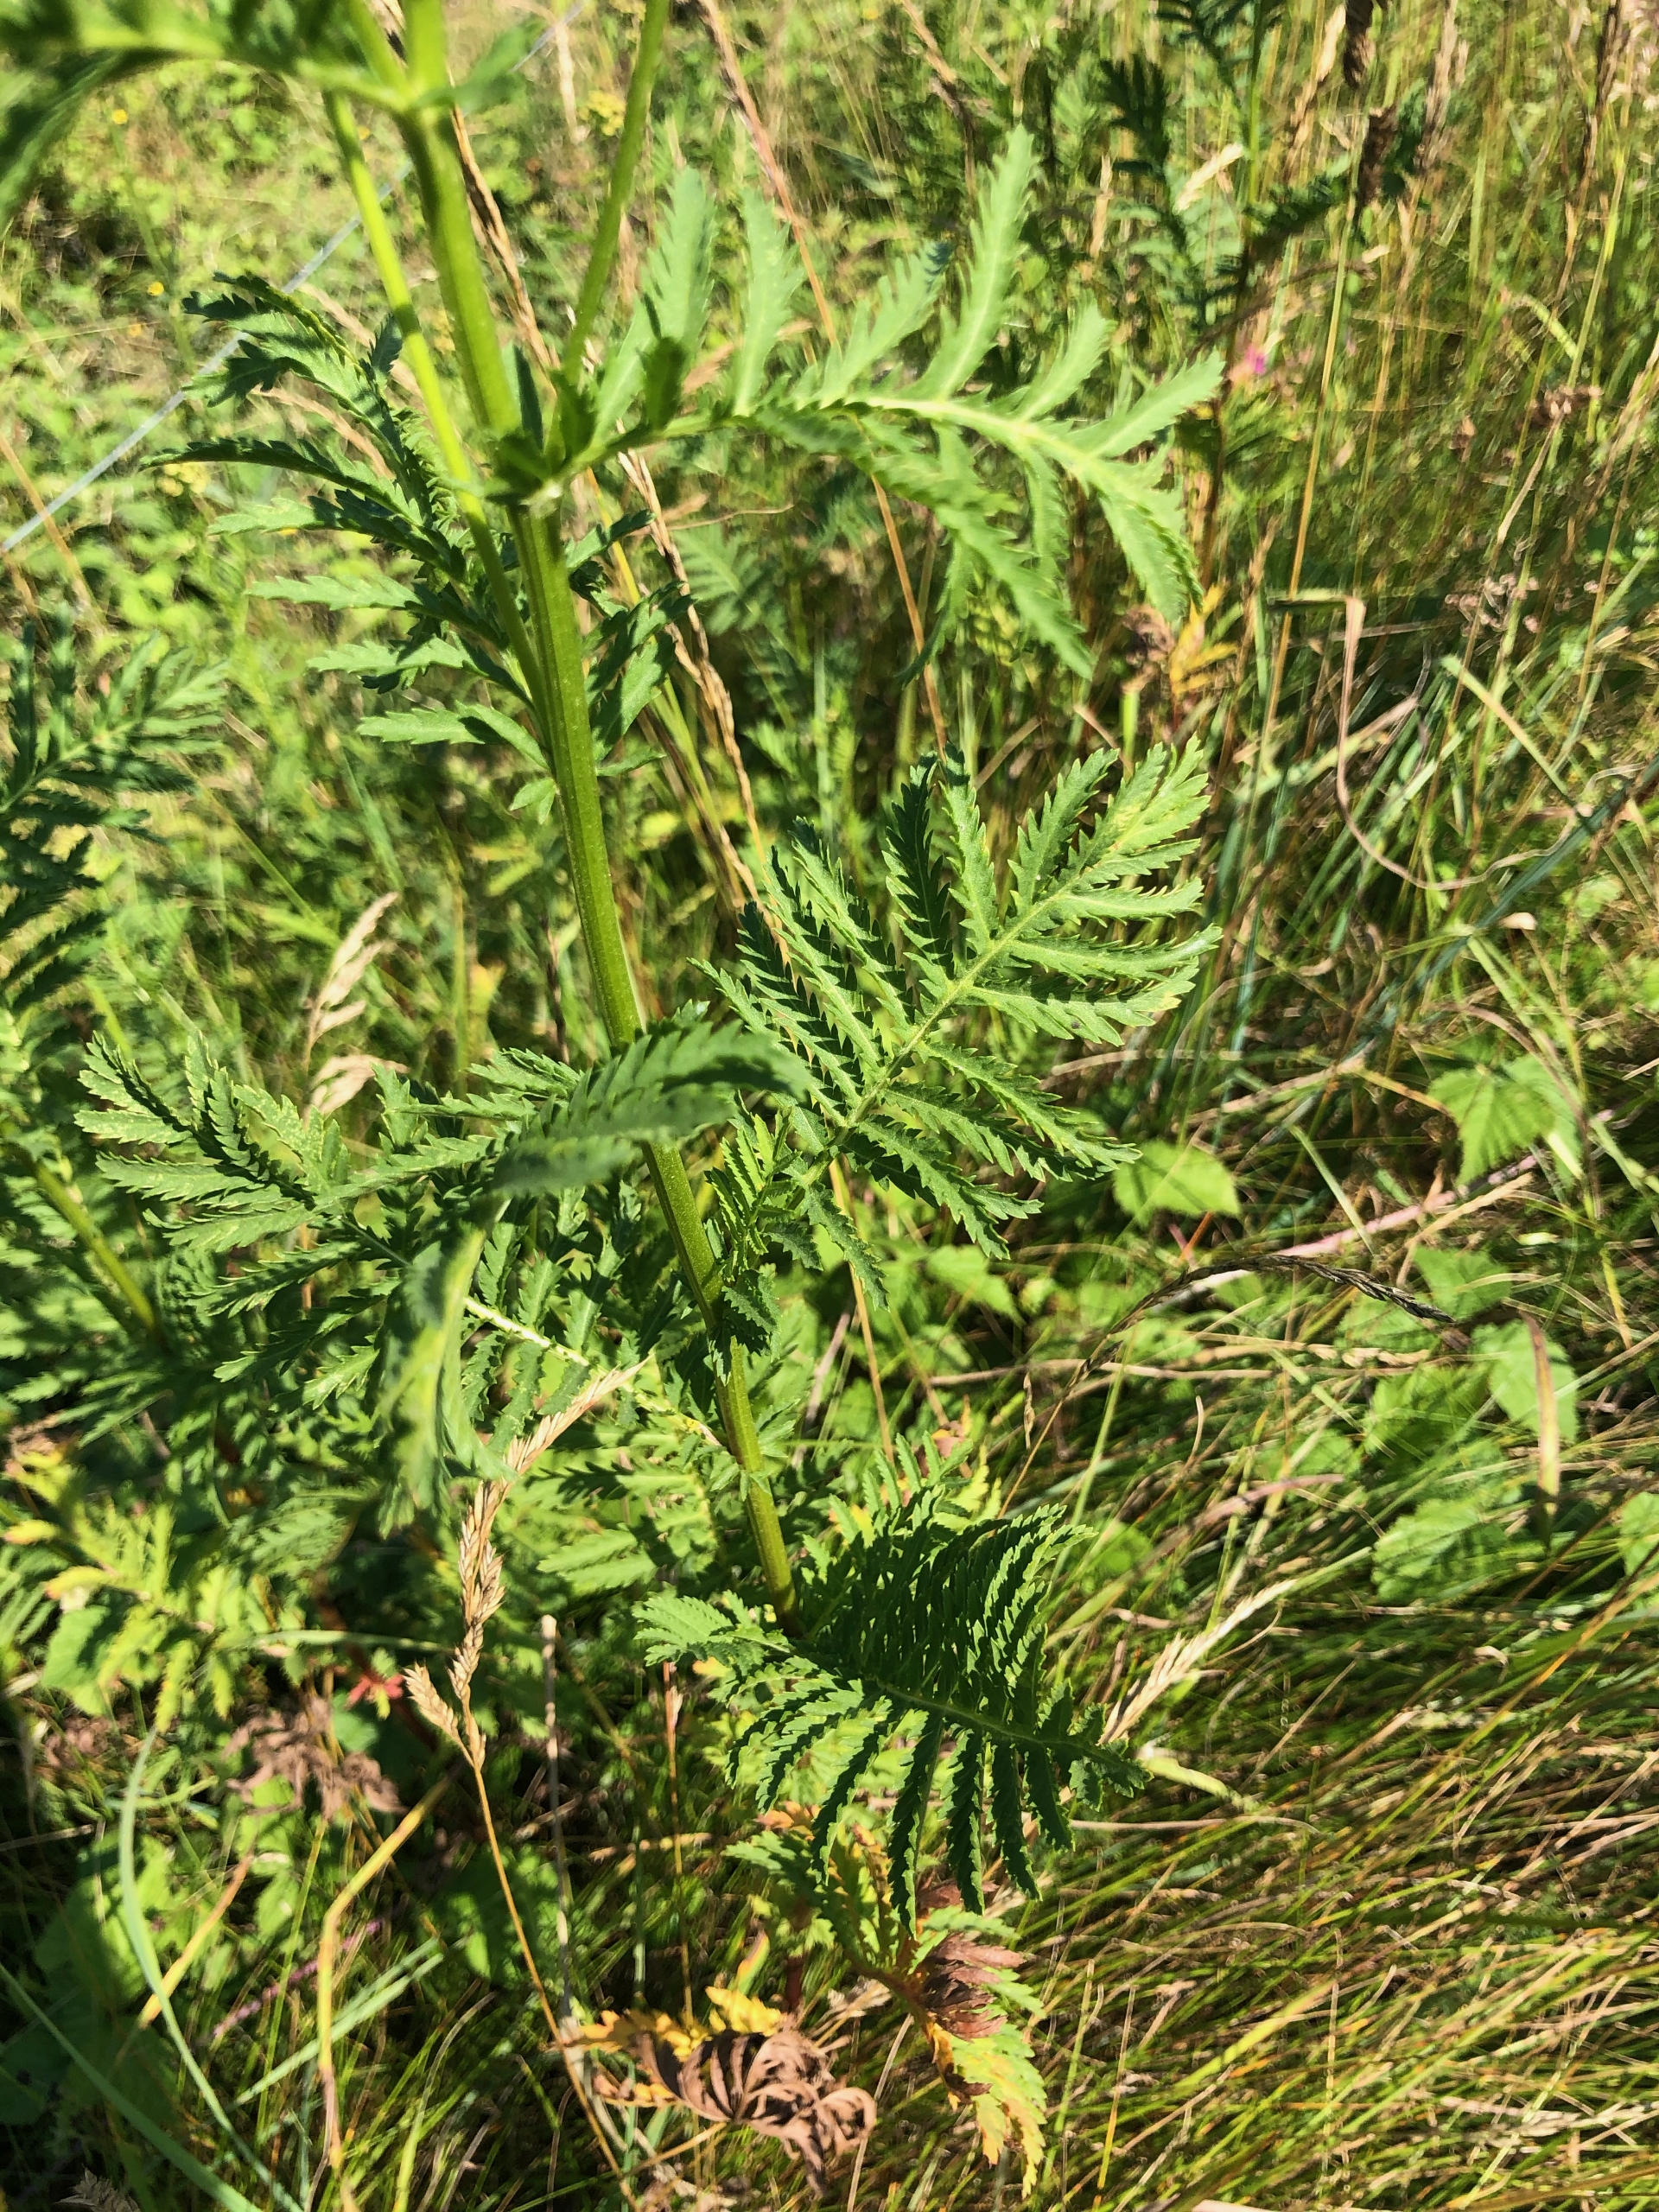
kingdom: Plantae
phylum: Tracheophyta
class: Magnoliopsida
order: Asterales
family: Asteraceae
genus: Tanacetum
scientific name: Tanacetum vulgare
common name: Rejnfan
